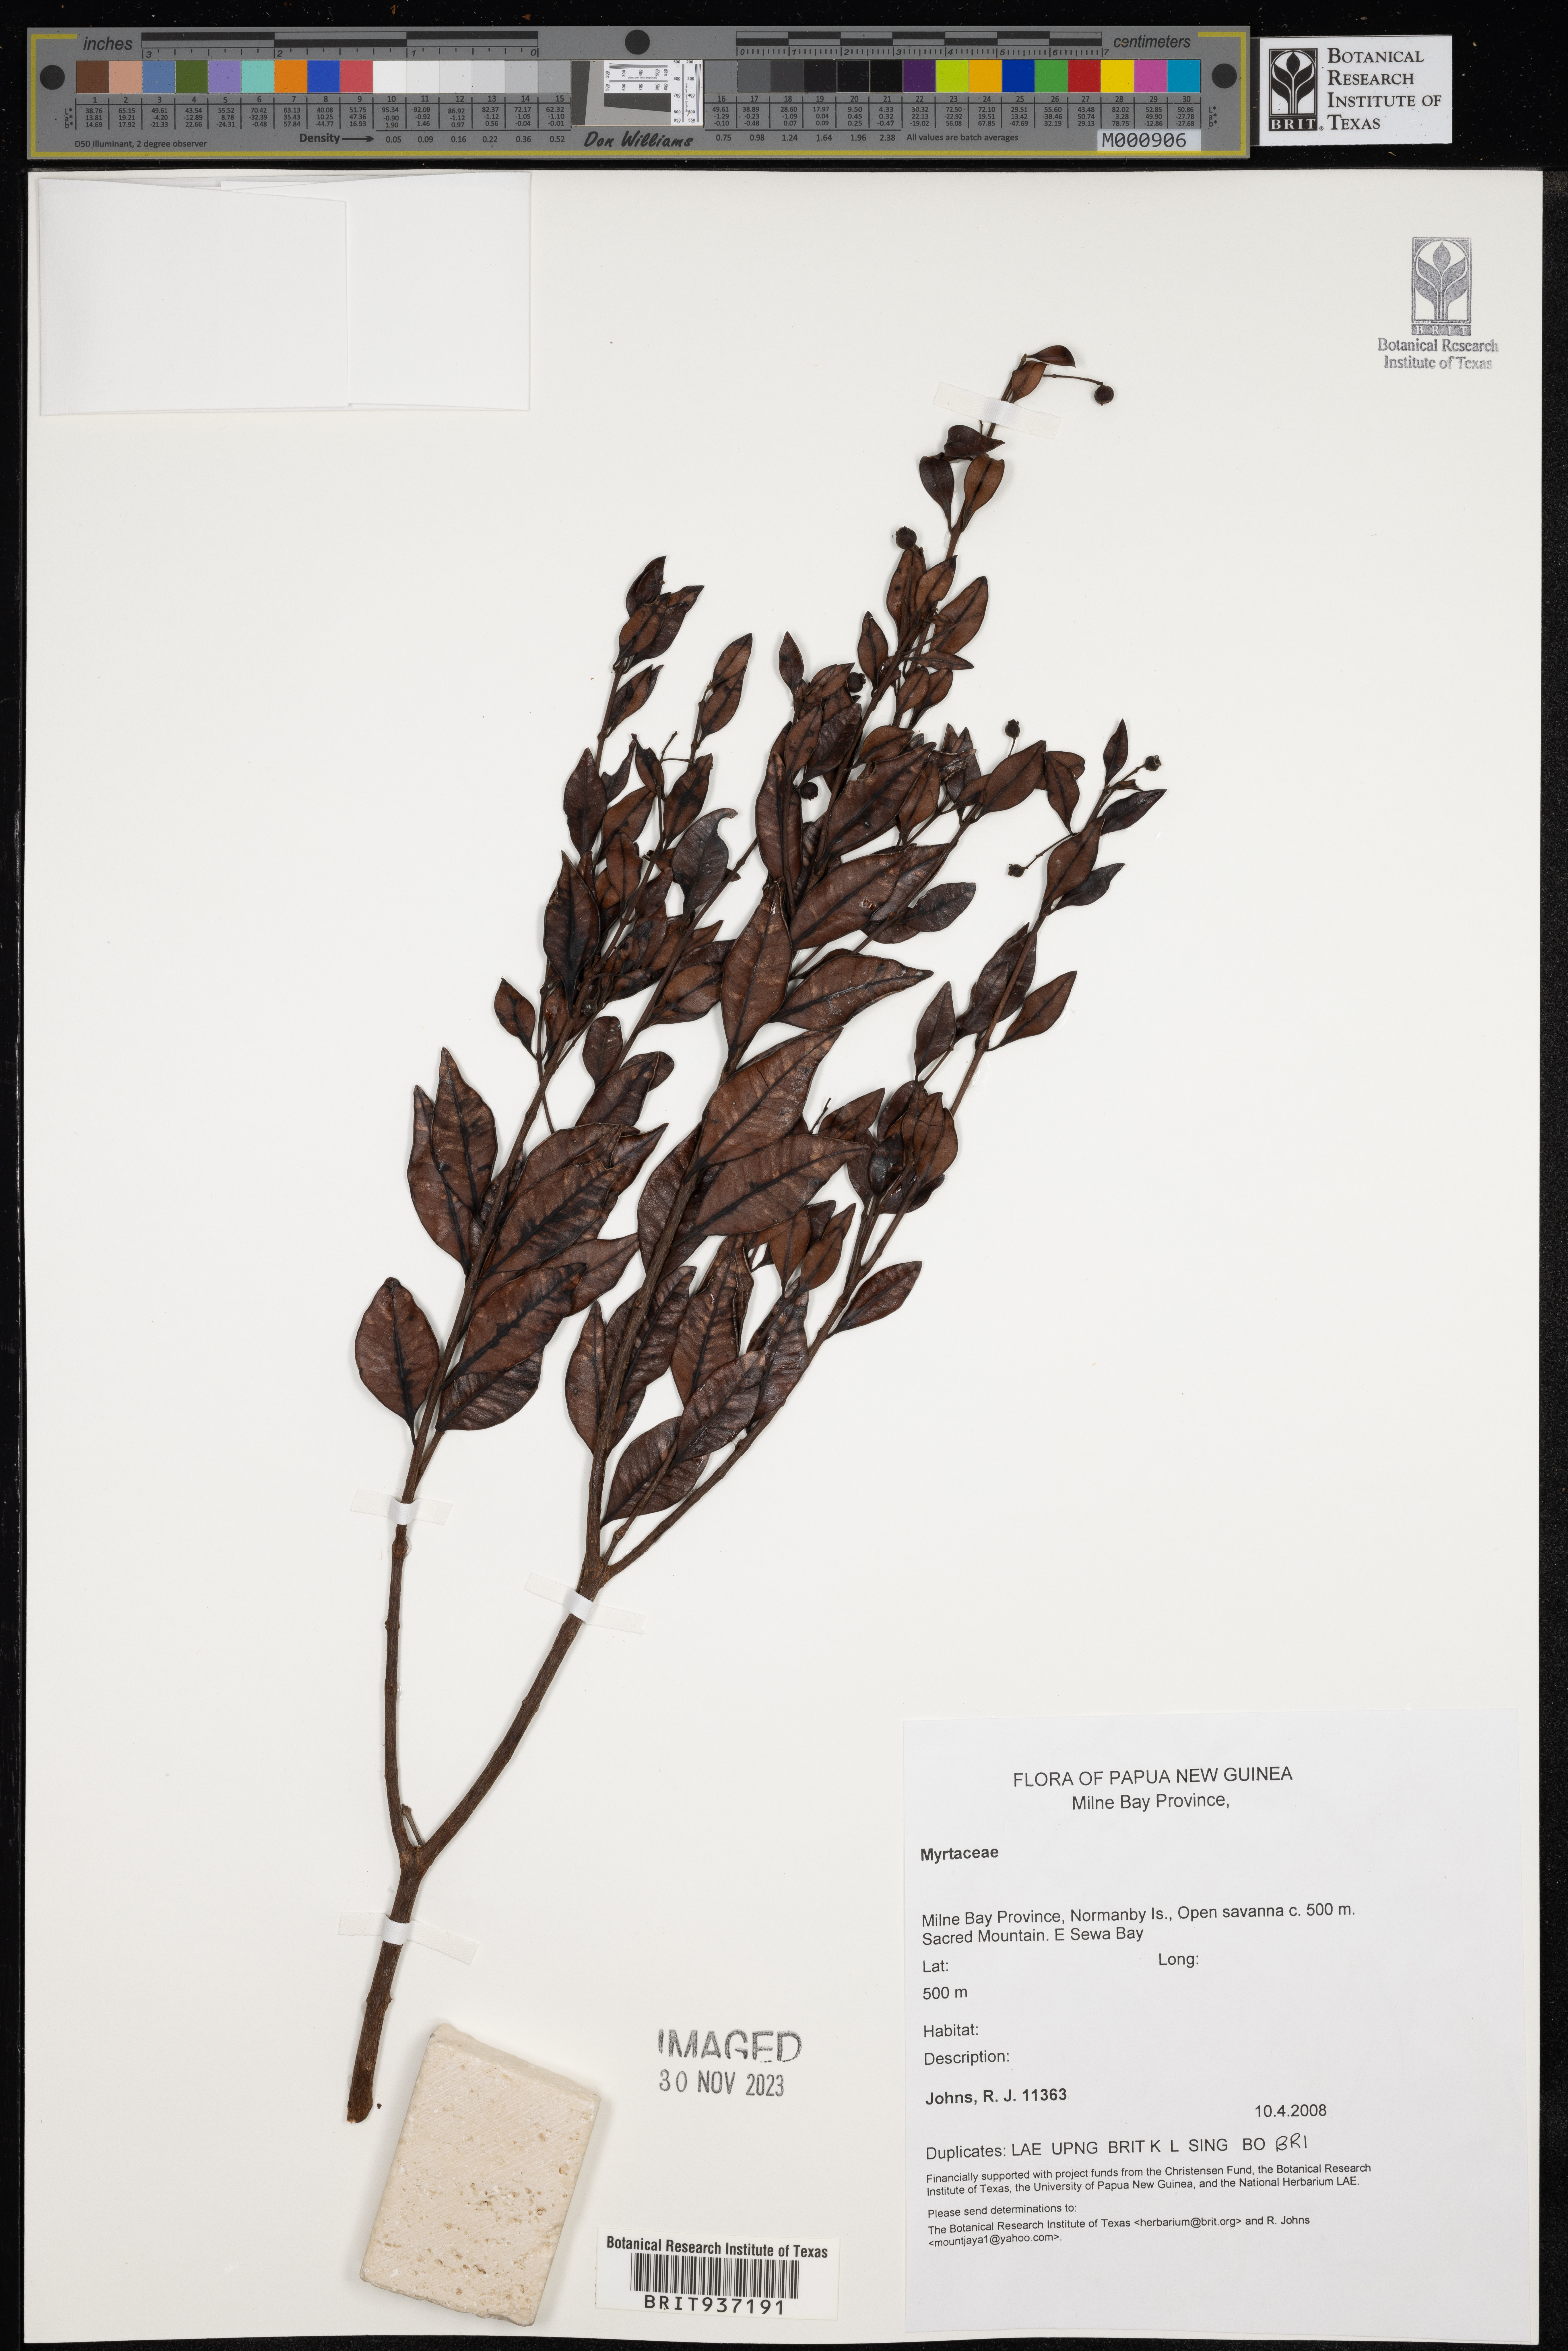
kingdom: Plantae
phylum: Tracheophyta
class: Magnoliopsida
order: Myrtales
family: Myrtaceae
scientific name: Myrtaceae
